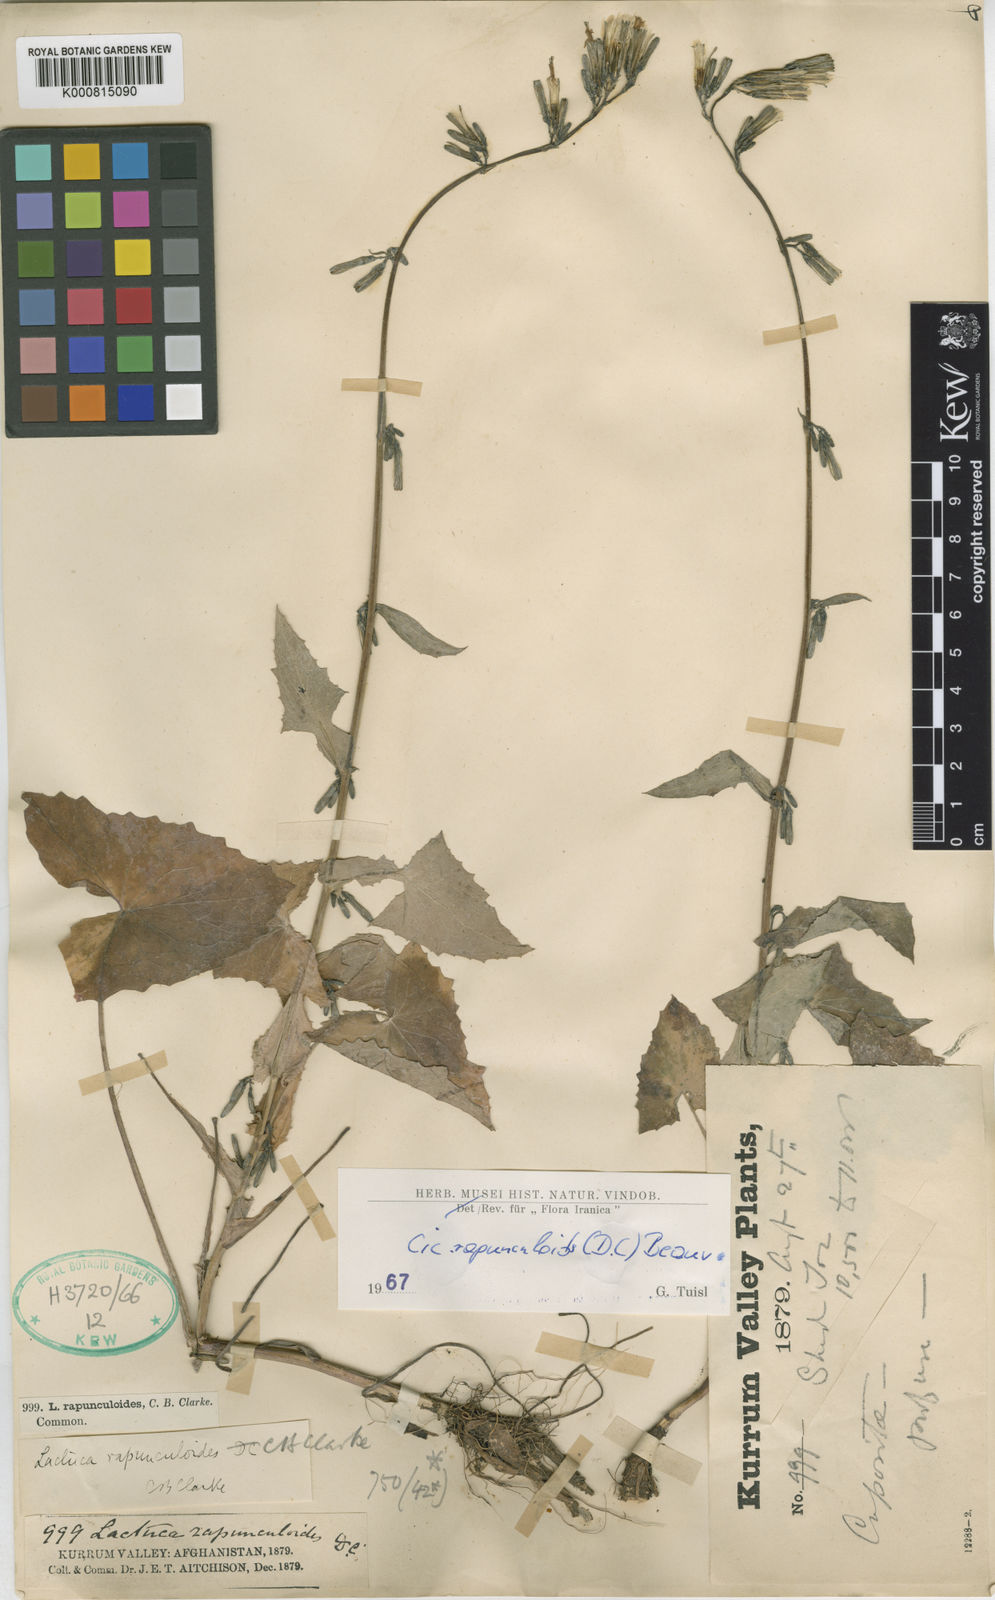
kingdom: Plantae
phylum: Tracheophyta
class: Magnoliopsida
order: Asterales
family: Asteraceae
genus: Kovalevskiella
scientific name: Kovalevskiella rapunculoides
